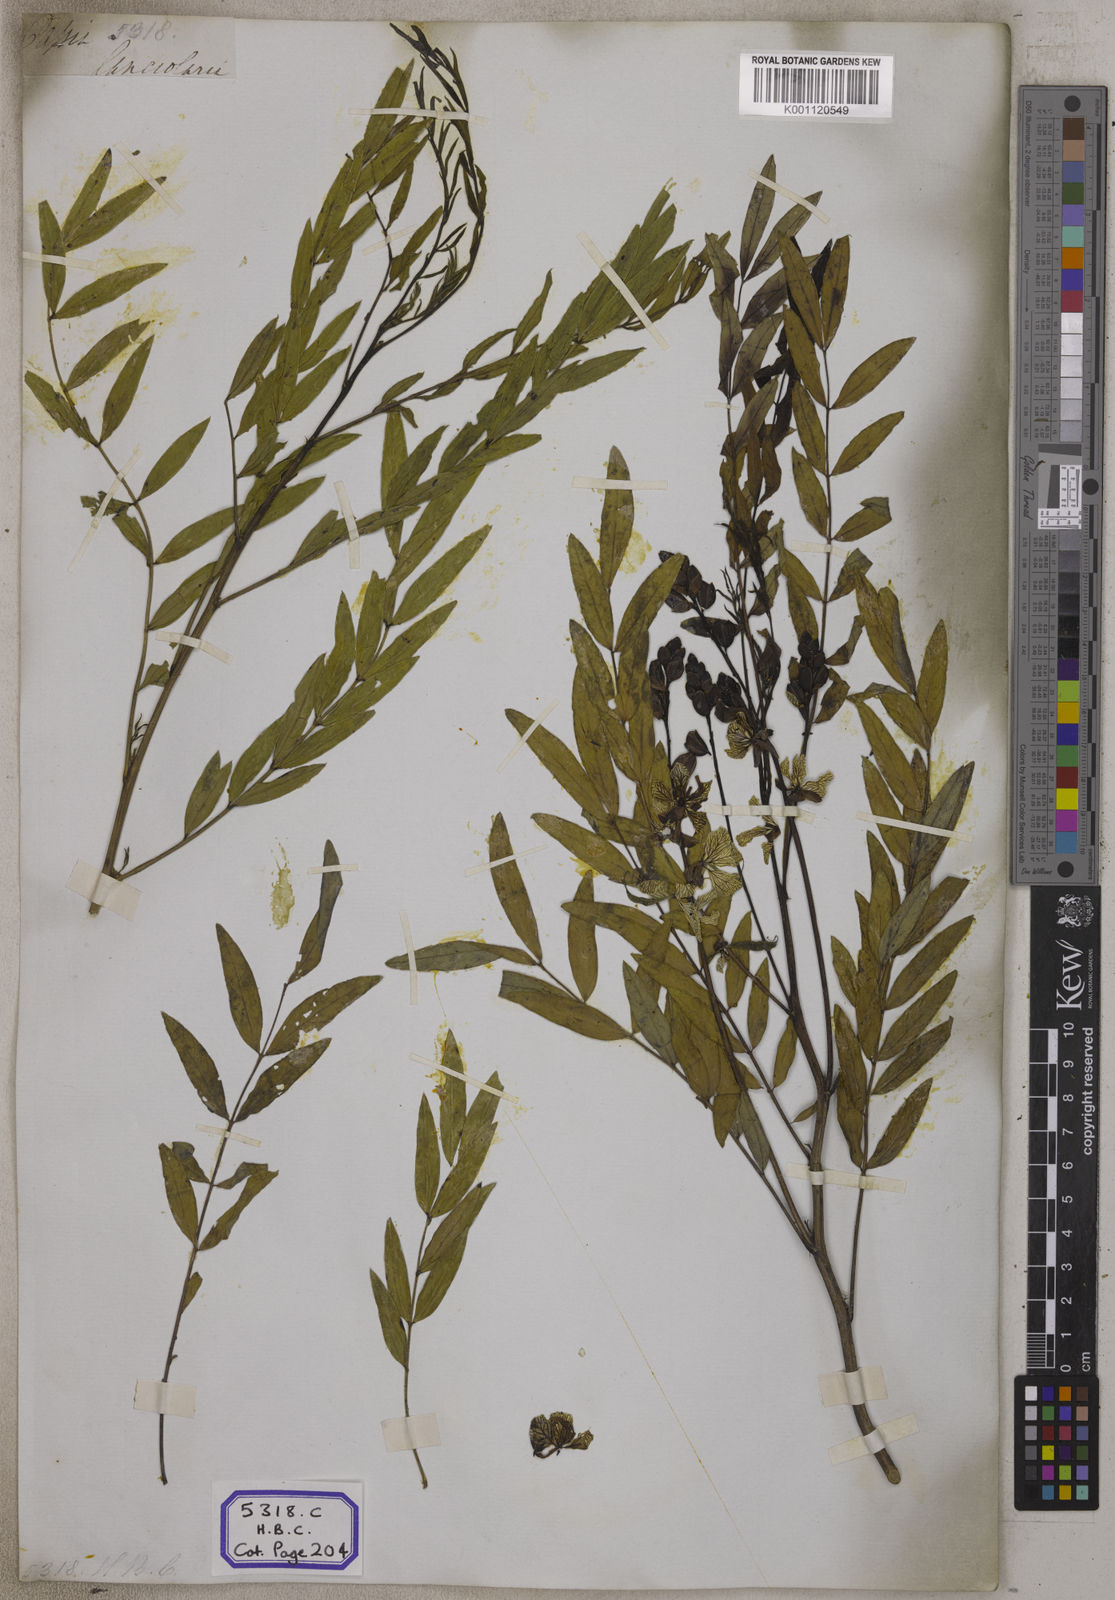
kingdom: Plantae
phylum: Tracheophyta
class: Magnoliopsida
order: Fabales
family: Fabaceae
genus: Senna
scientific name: Senna alexandrina
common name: True senna
